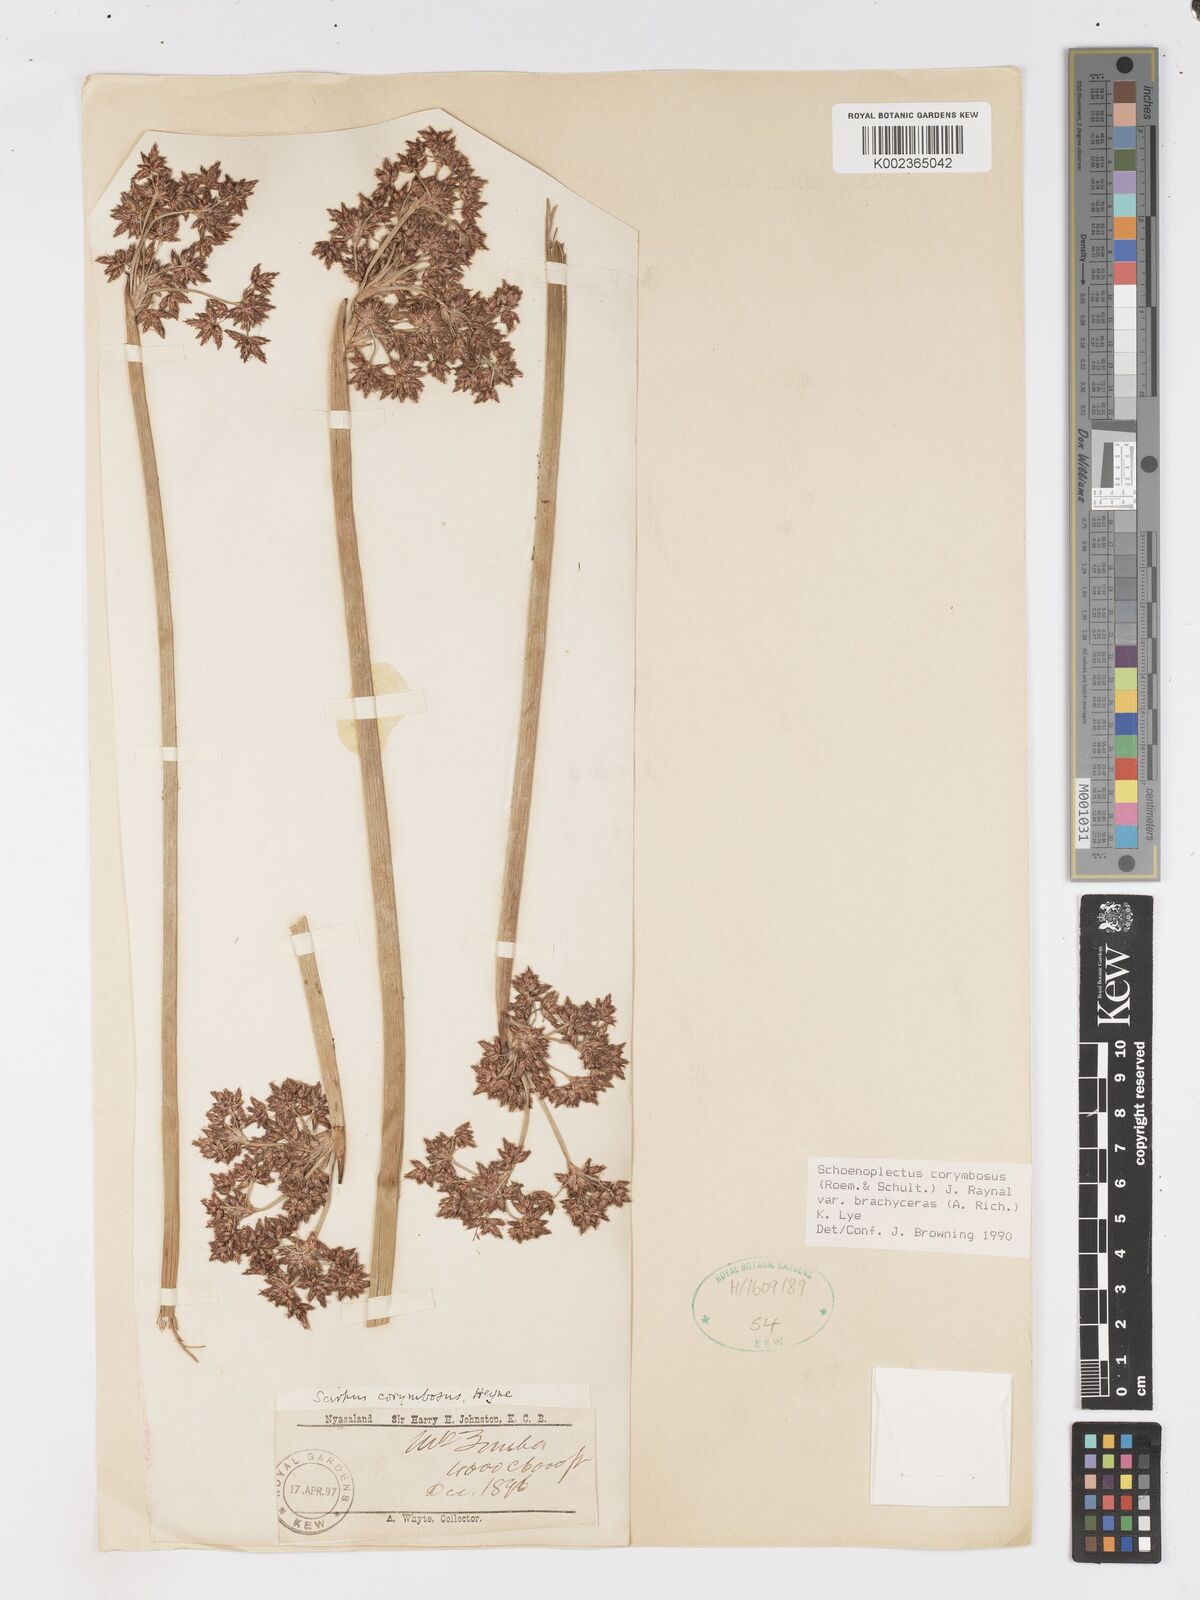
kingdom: Plantae
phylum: Tracheophyta
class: Liliopsida
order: Poales
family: Cyperaceae
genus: Schoenoplectiella
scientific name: Schoenoplectiella brachyceras
